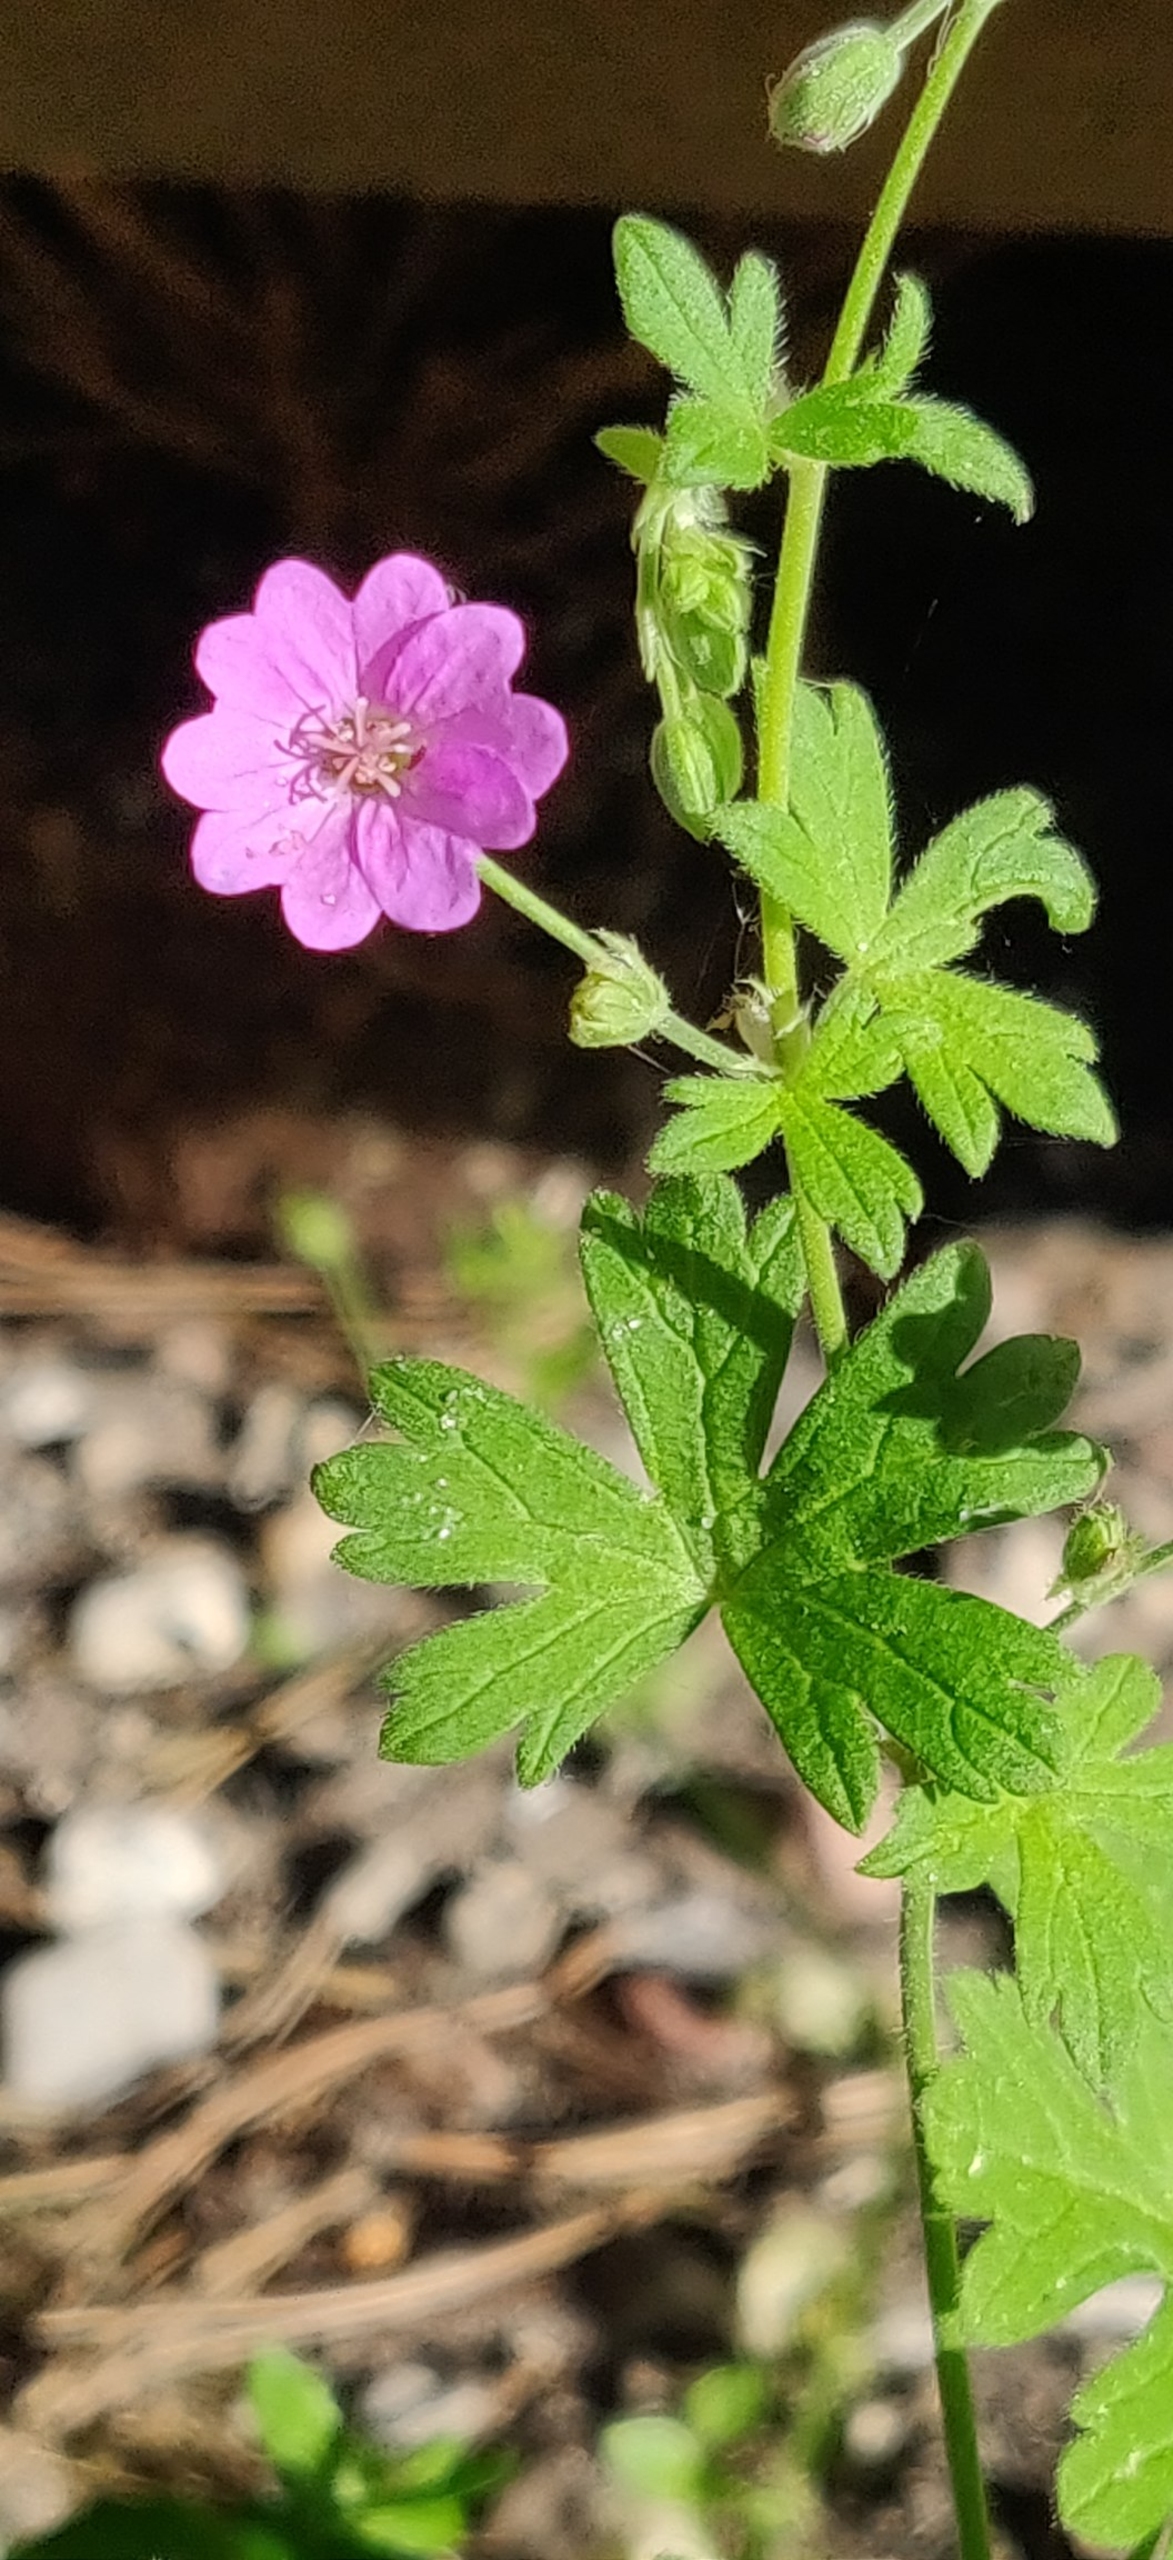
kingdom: Plantae
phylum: Tracheophyta
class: Magnoliopsida
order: Geraniales
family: Geraniaceae
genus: Geranium
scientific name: Geranium molle
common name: Blød storkenæb
